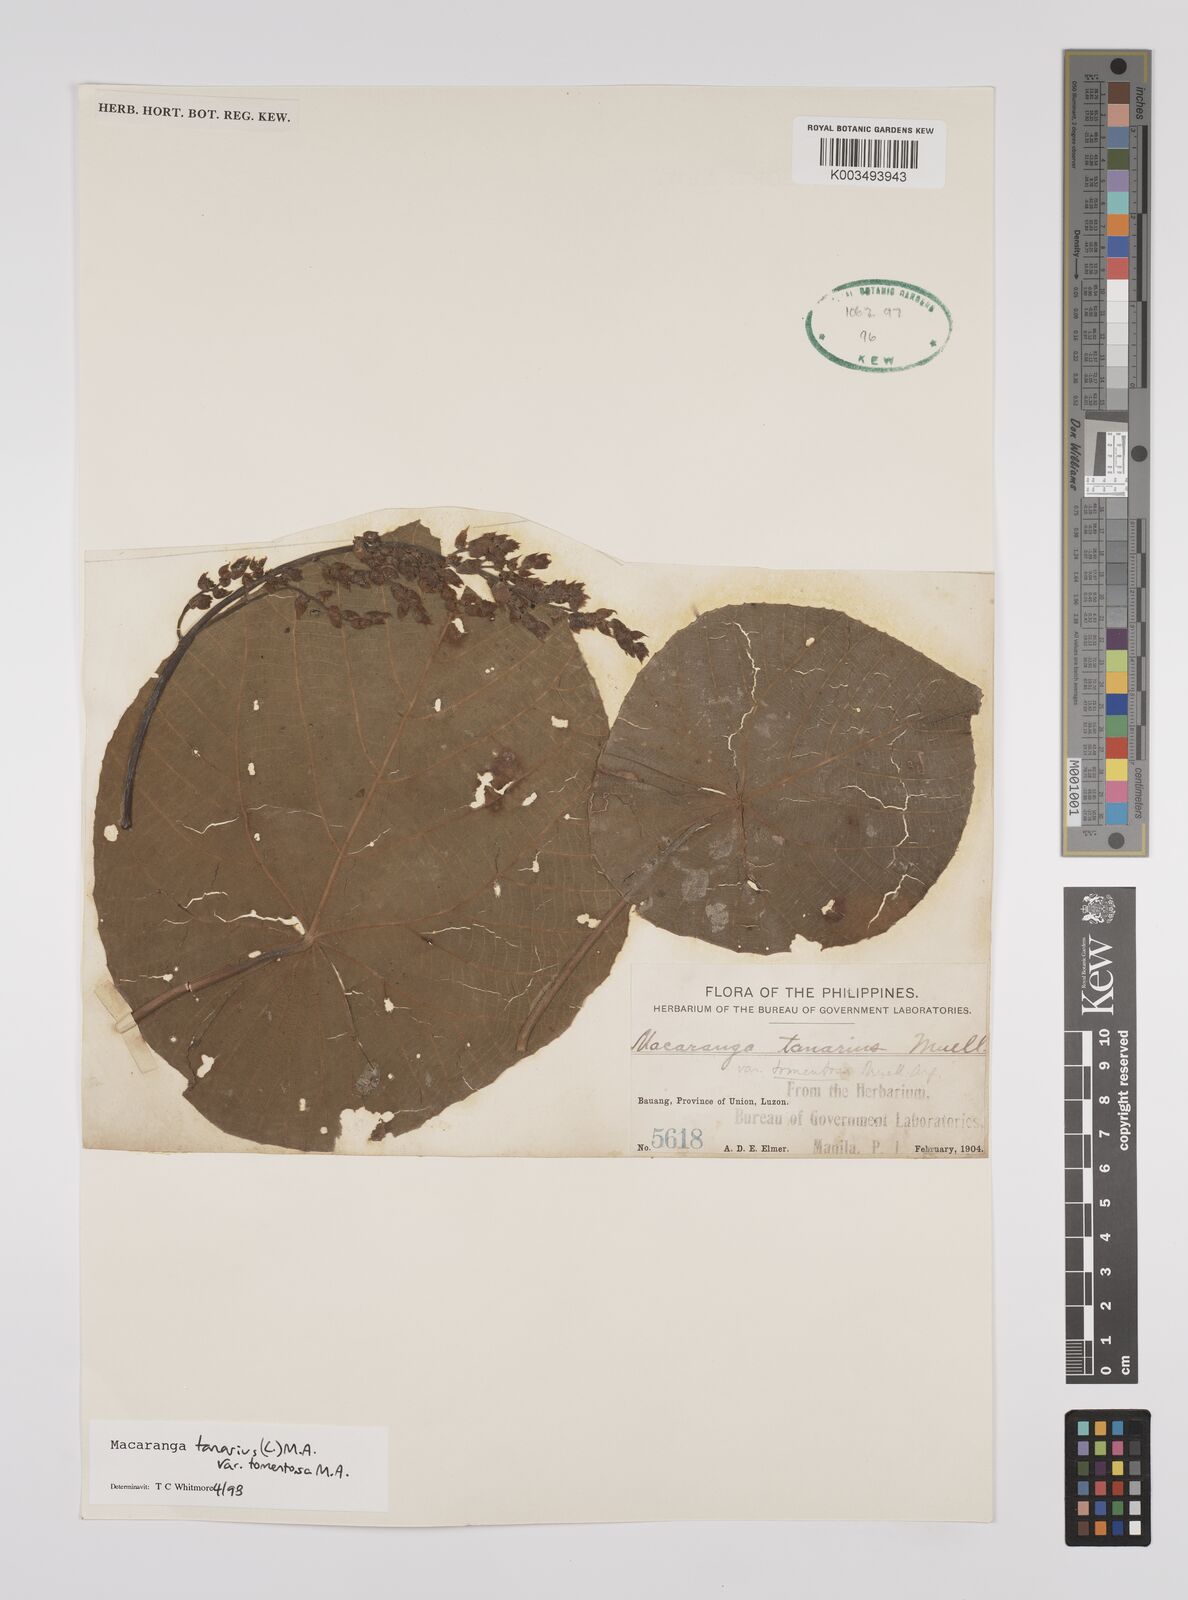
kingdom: Plantae
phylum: Tracheophyta
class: Magnoliopsida
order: Malpighiales
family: Euphorbiaceae
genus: Macaranga
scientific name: Macaranga tanarius
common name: Parasol leaf tree
